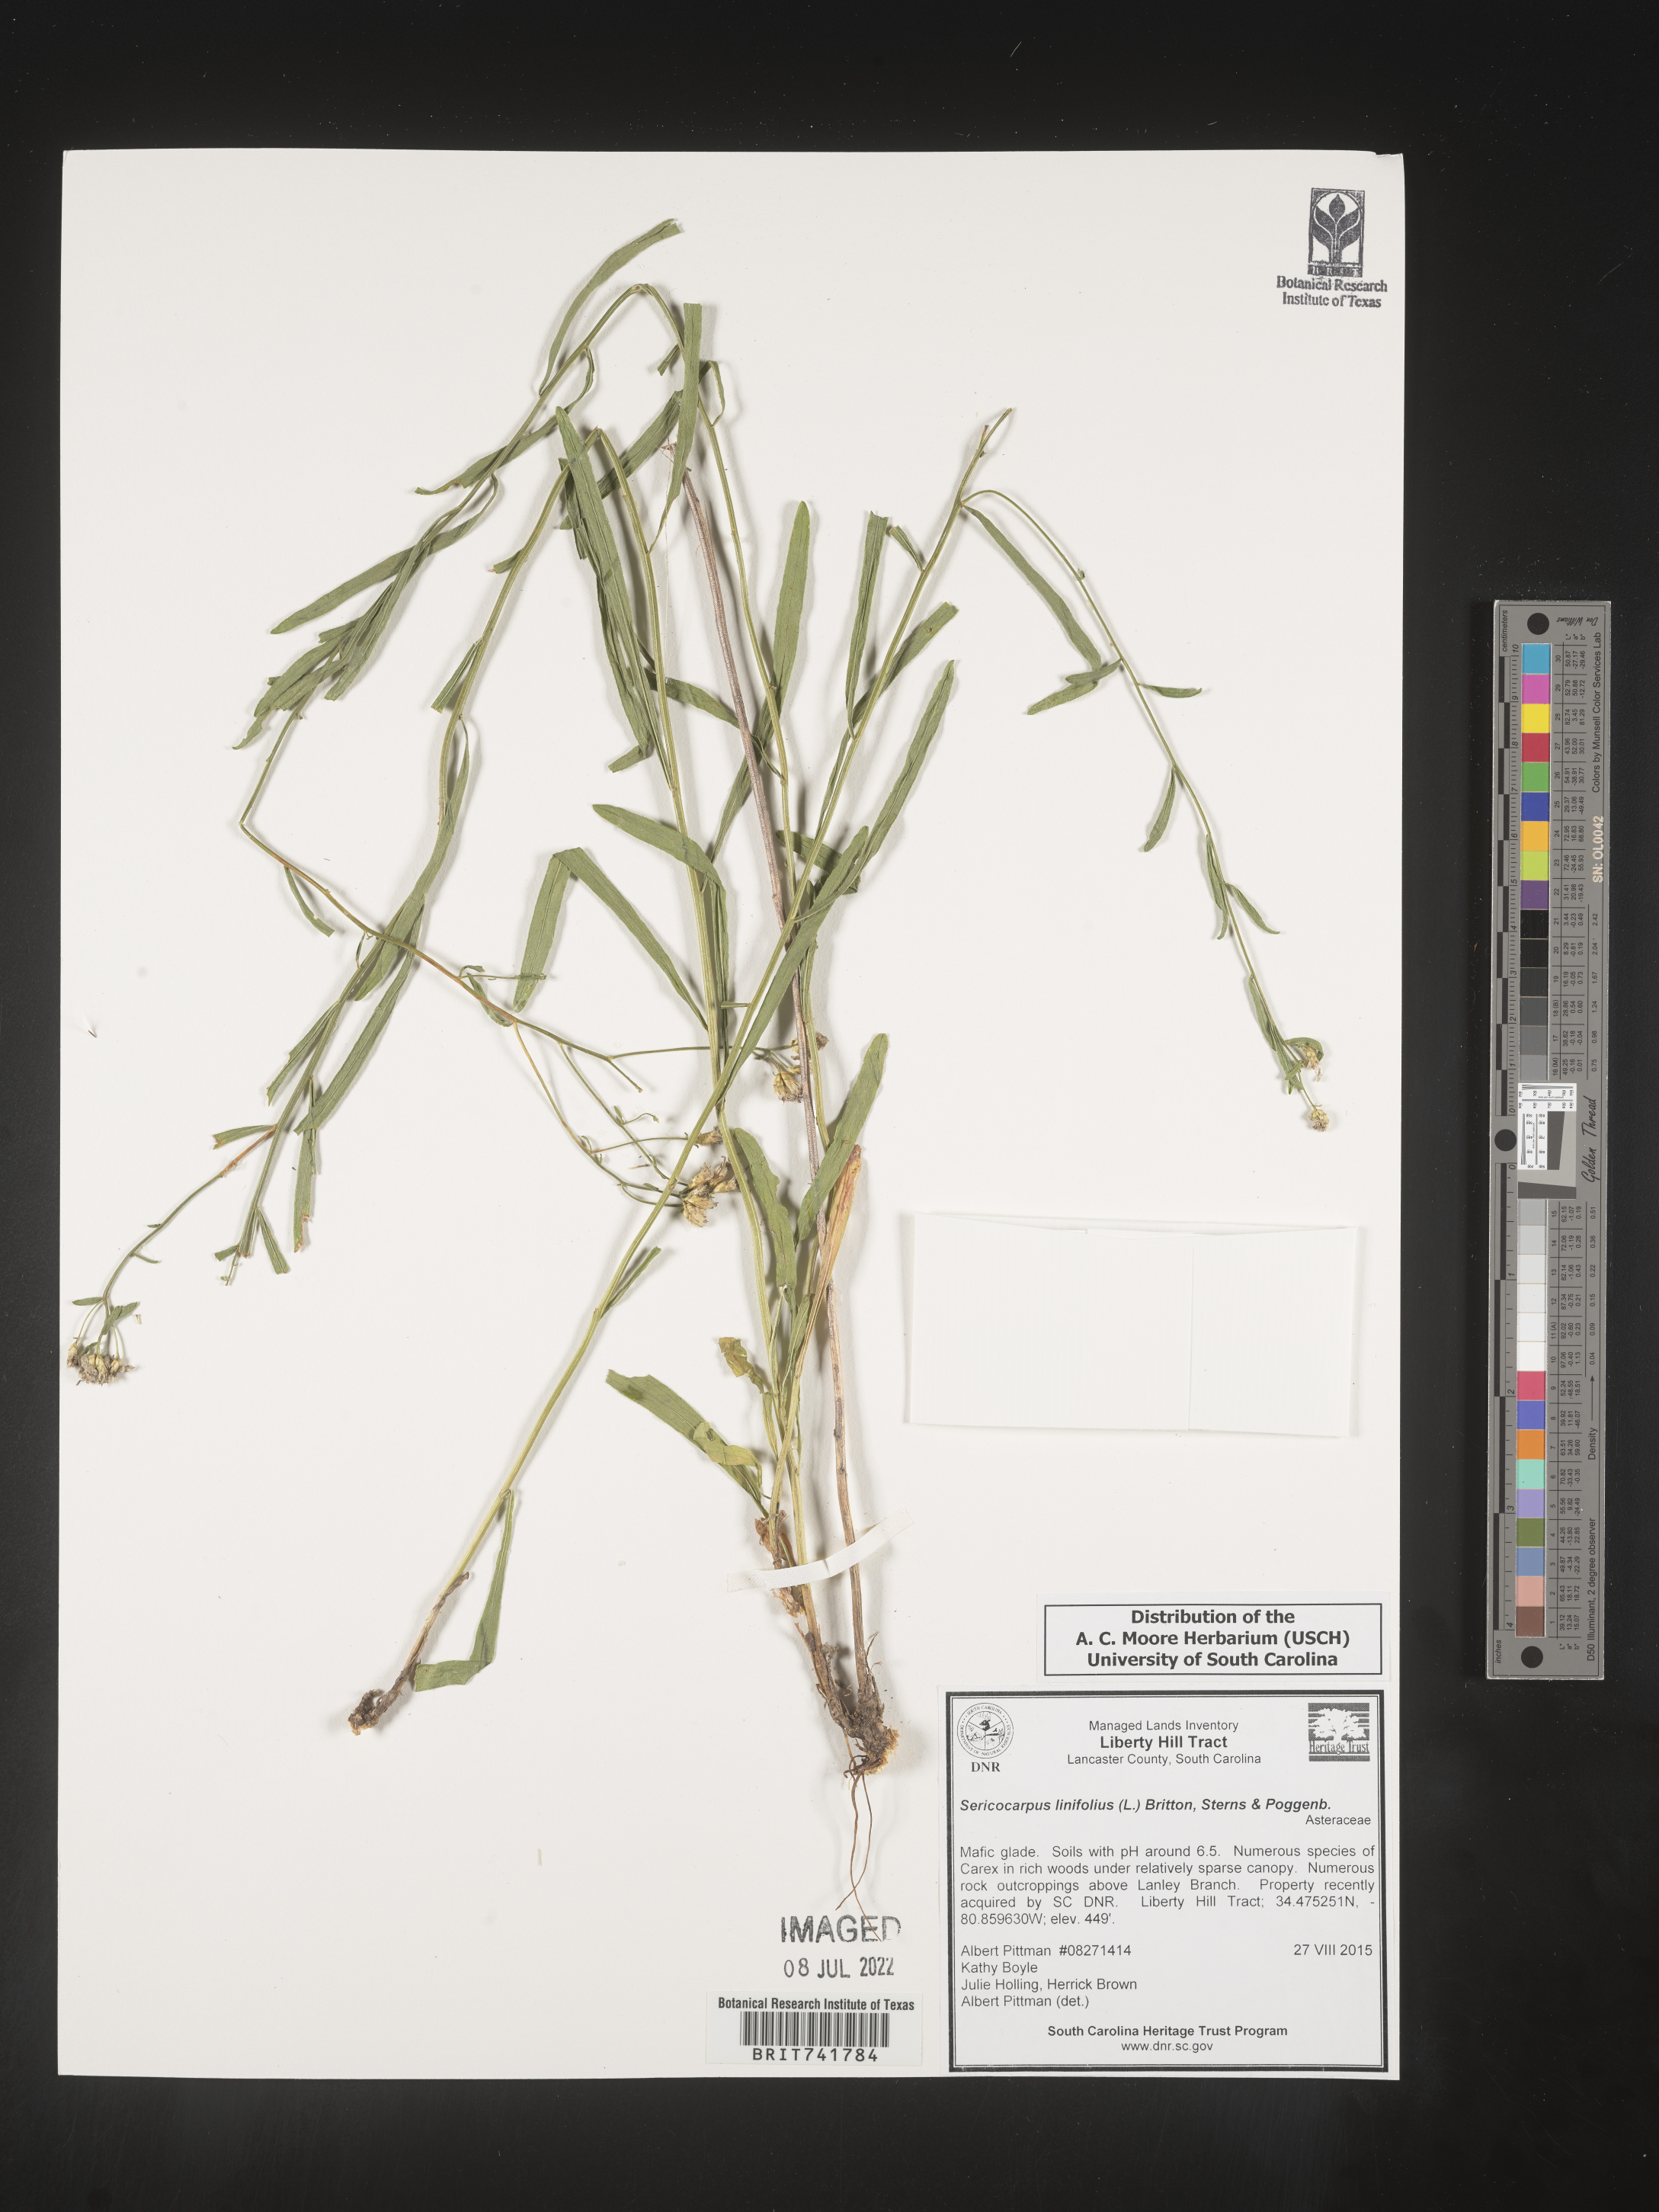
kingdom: Plantae
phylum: Tracheophyta
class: Magnoliopsida
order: Asterales
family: Asteraceae
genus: Sericocarpus
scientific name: Sericocarpus linifolius
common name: Narrow-leaf aster
